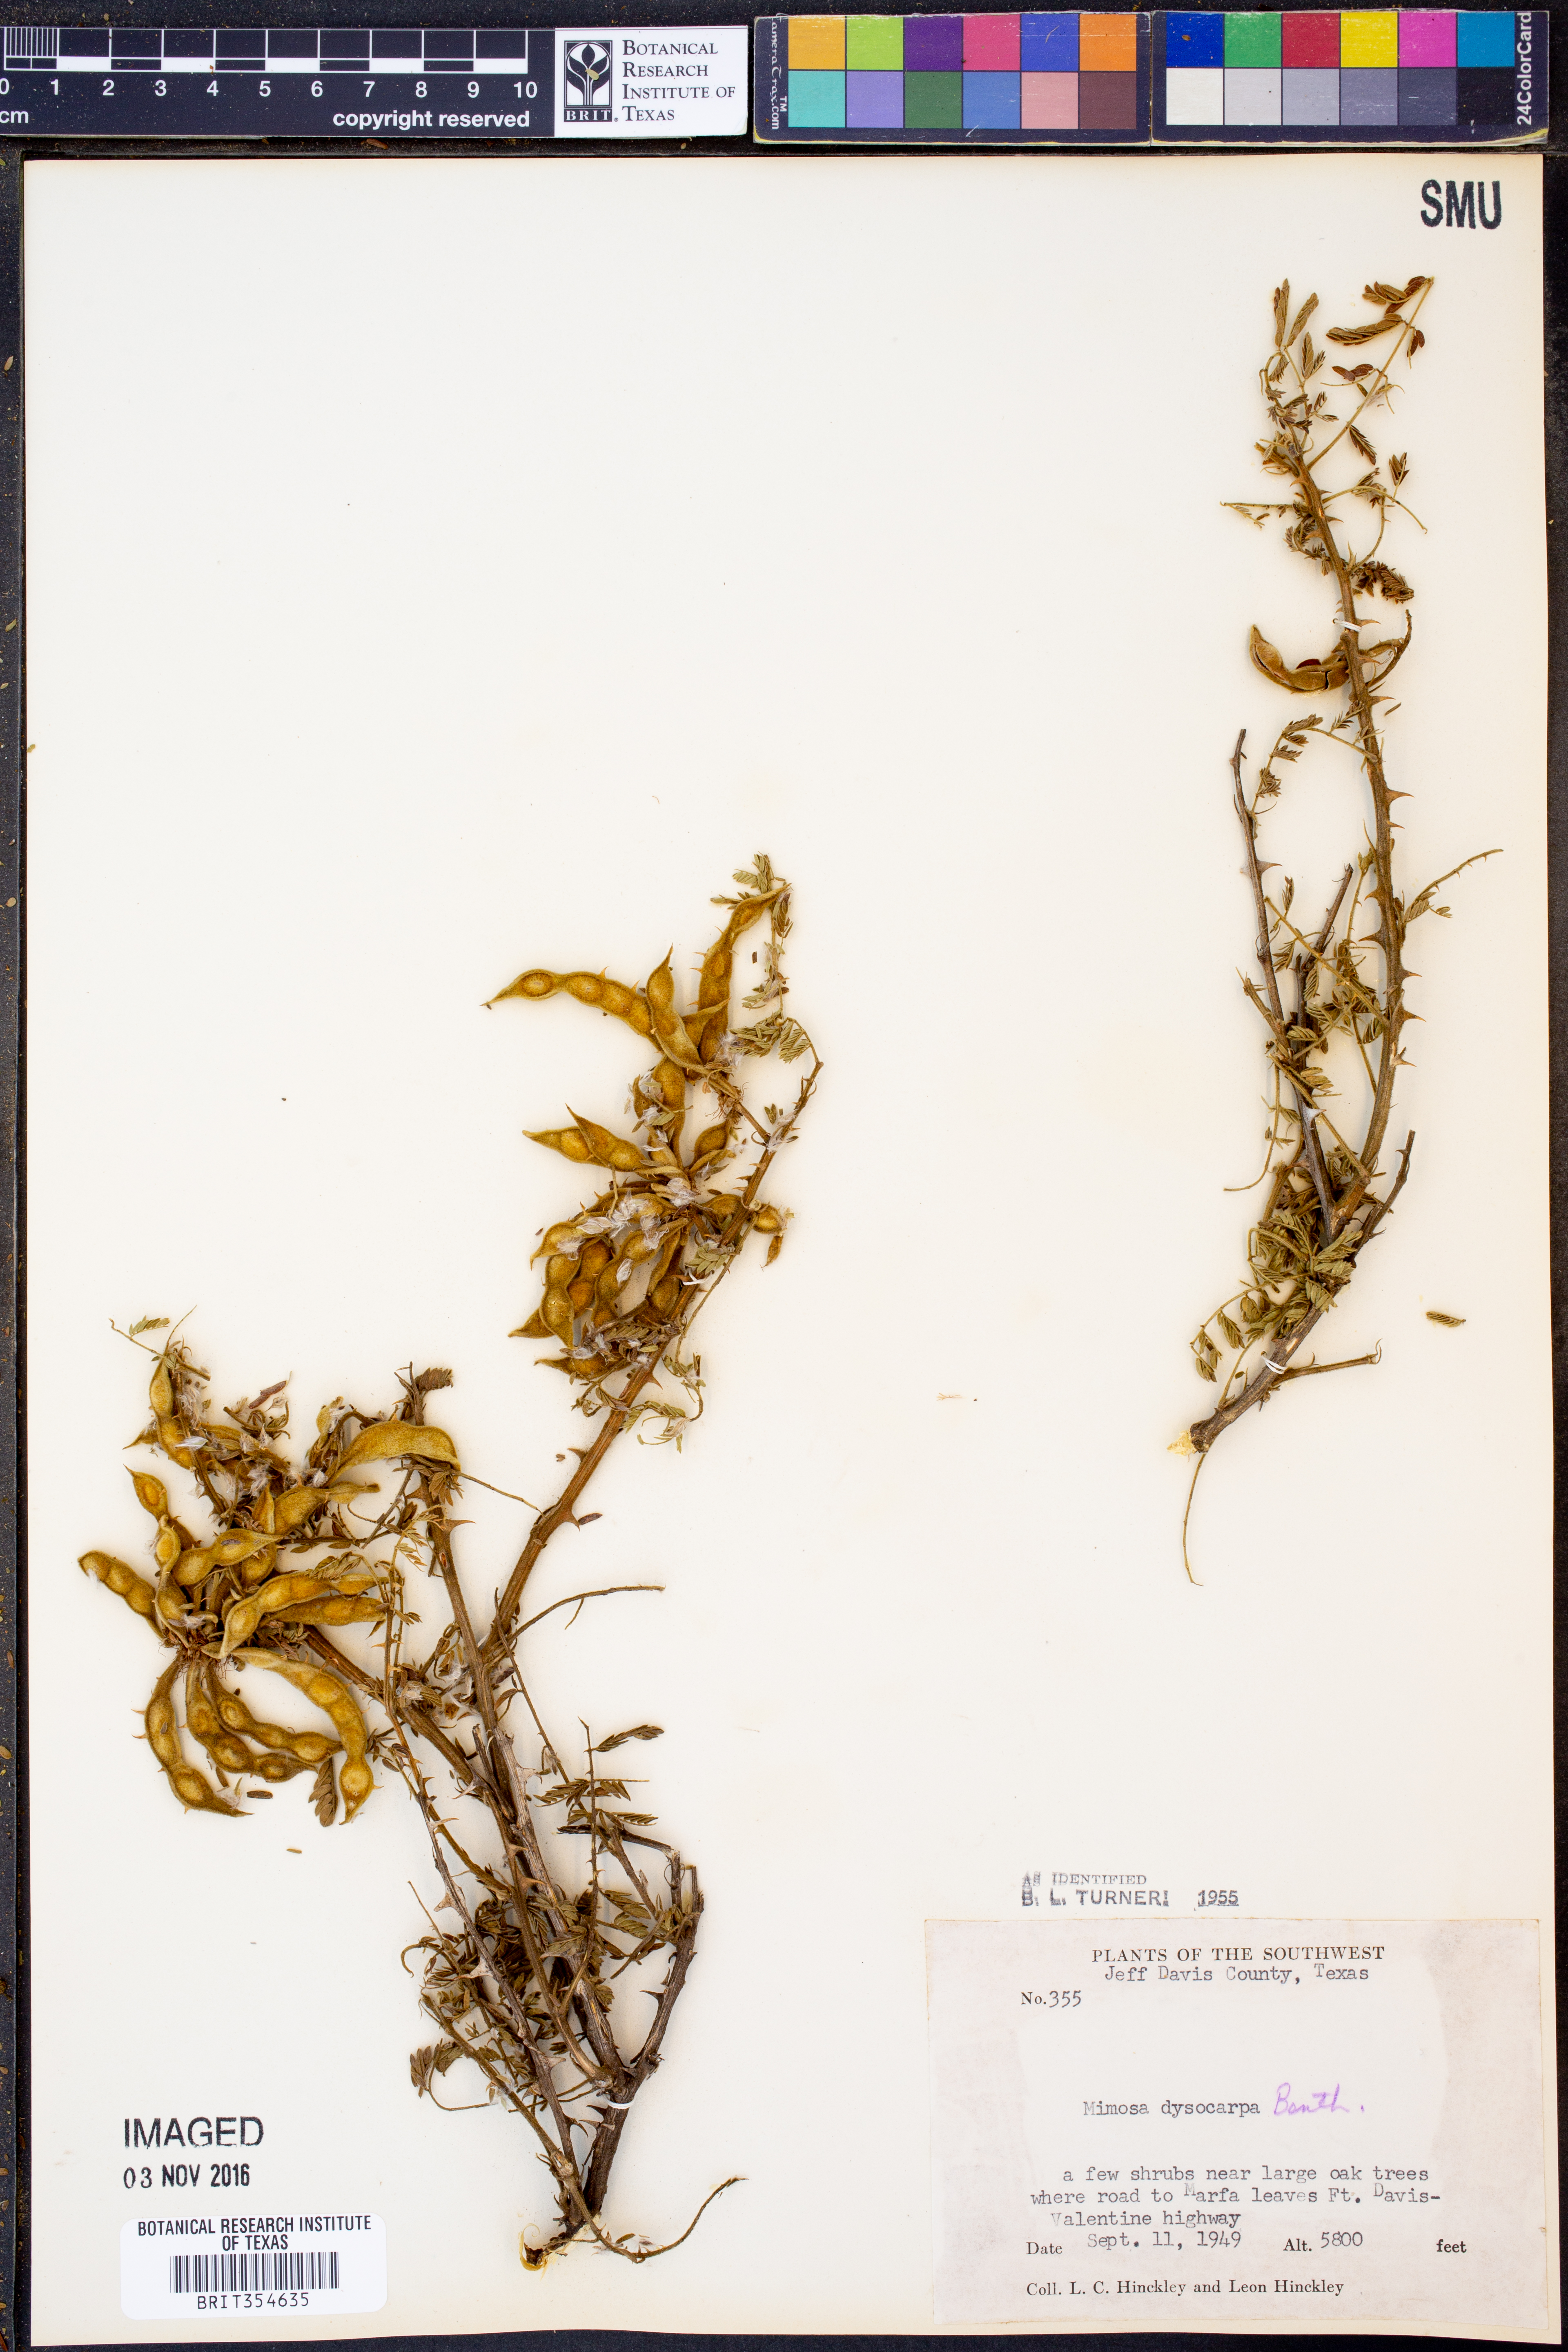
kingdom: Plantae
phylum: Tracheophyta
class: Magnoliopsida
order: Fabales
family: Fabaceae
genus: Mimosa
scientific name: Mimosa dysocarpa
